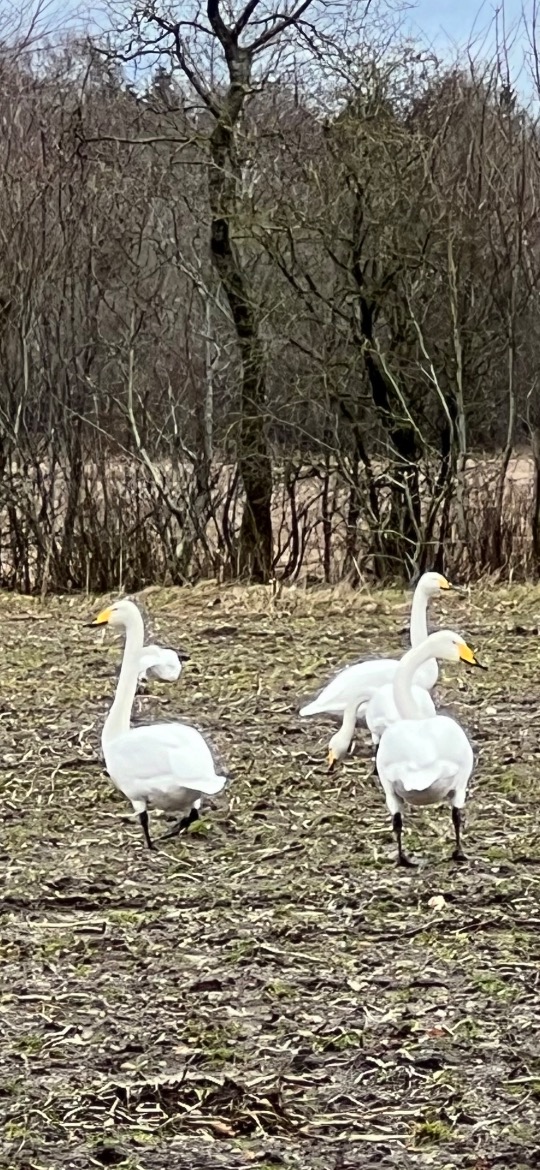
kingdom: Animalia
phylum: Chordata
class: Aves
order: Anseriformes
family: Anatidae
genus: Cygnus
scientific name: Cygnus cygnus
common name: Sangsvane
